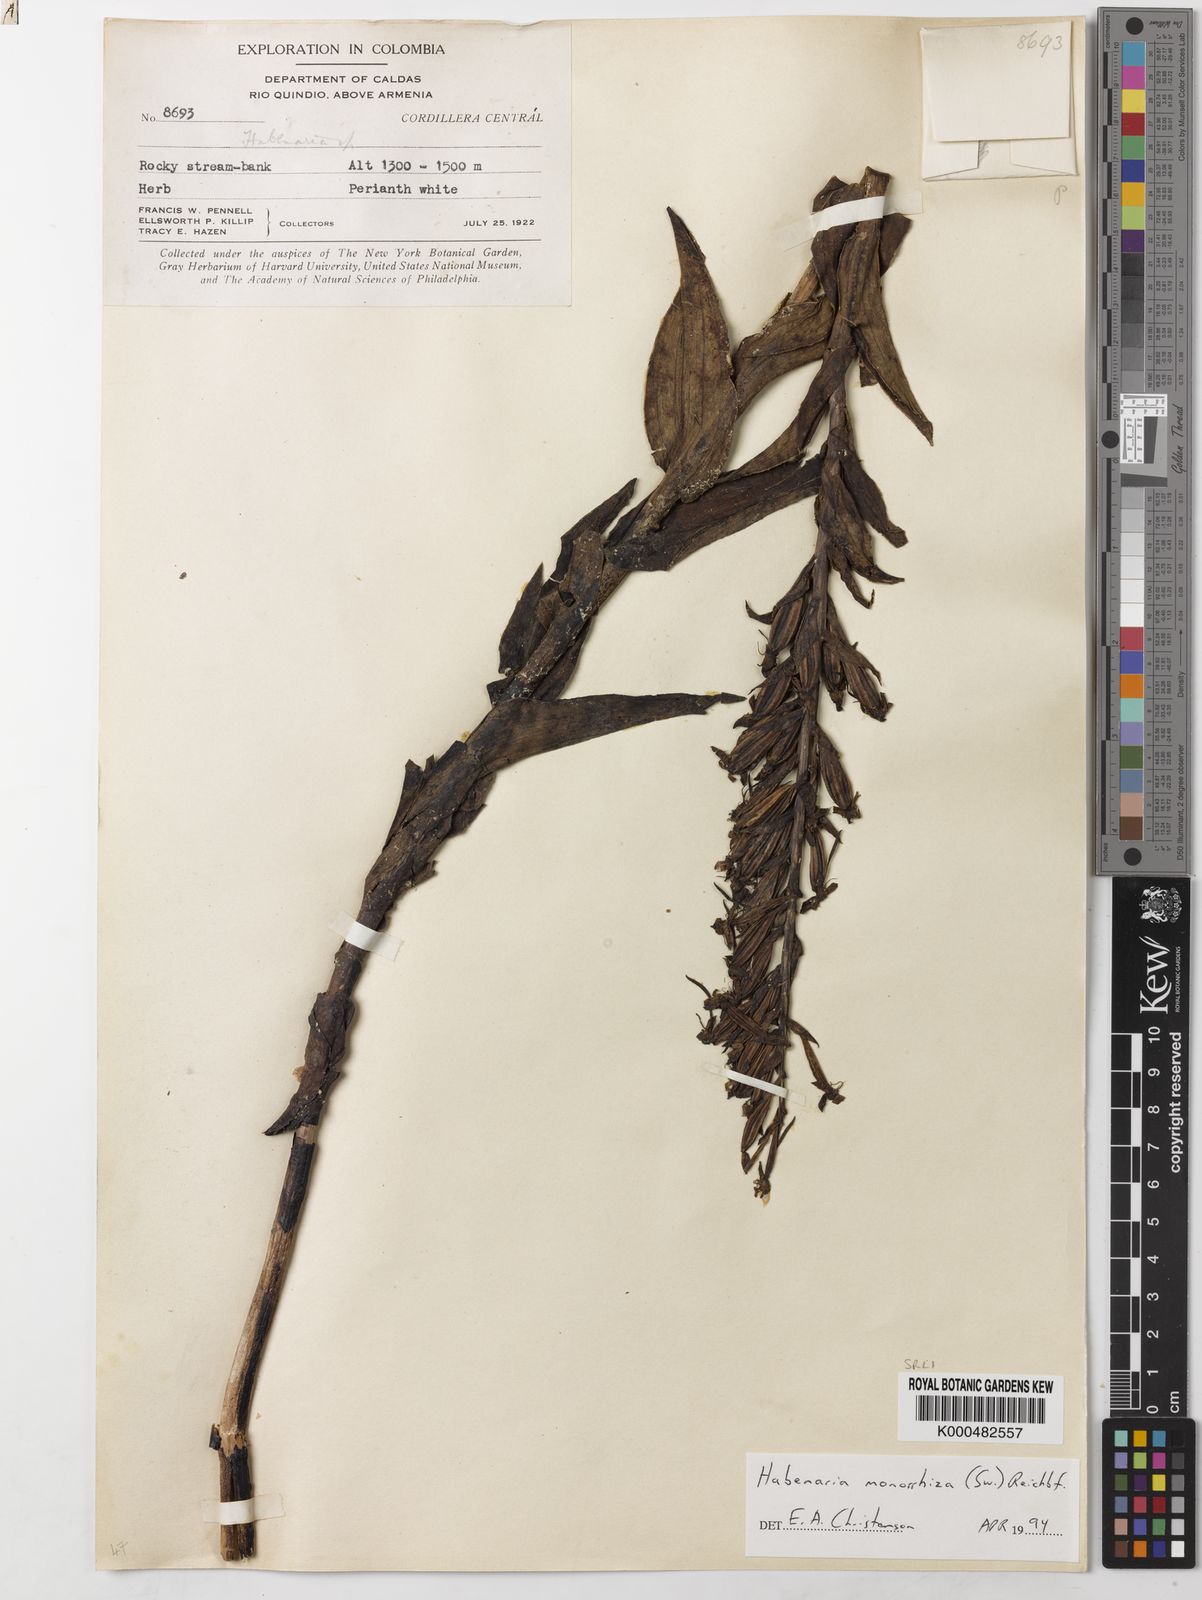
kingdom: Plantae
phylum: Tracheophyta
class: Liliopsida
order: Asparagales
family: Orchidaceae
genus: Habenaria
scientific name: Habenaria monorrhiza
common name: Tropical bog orchid
